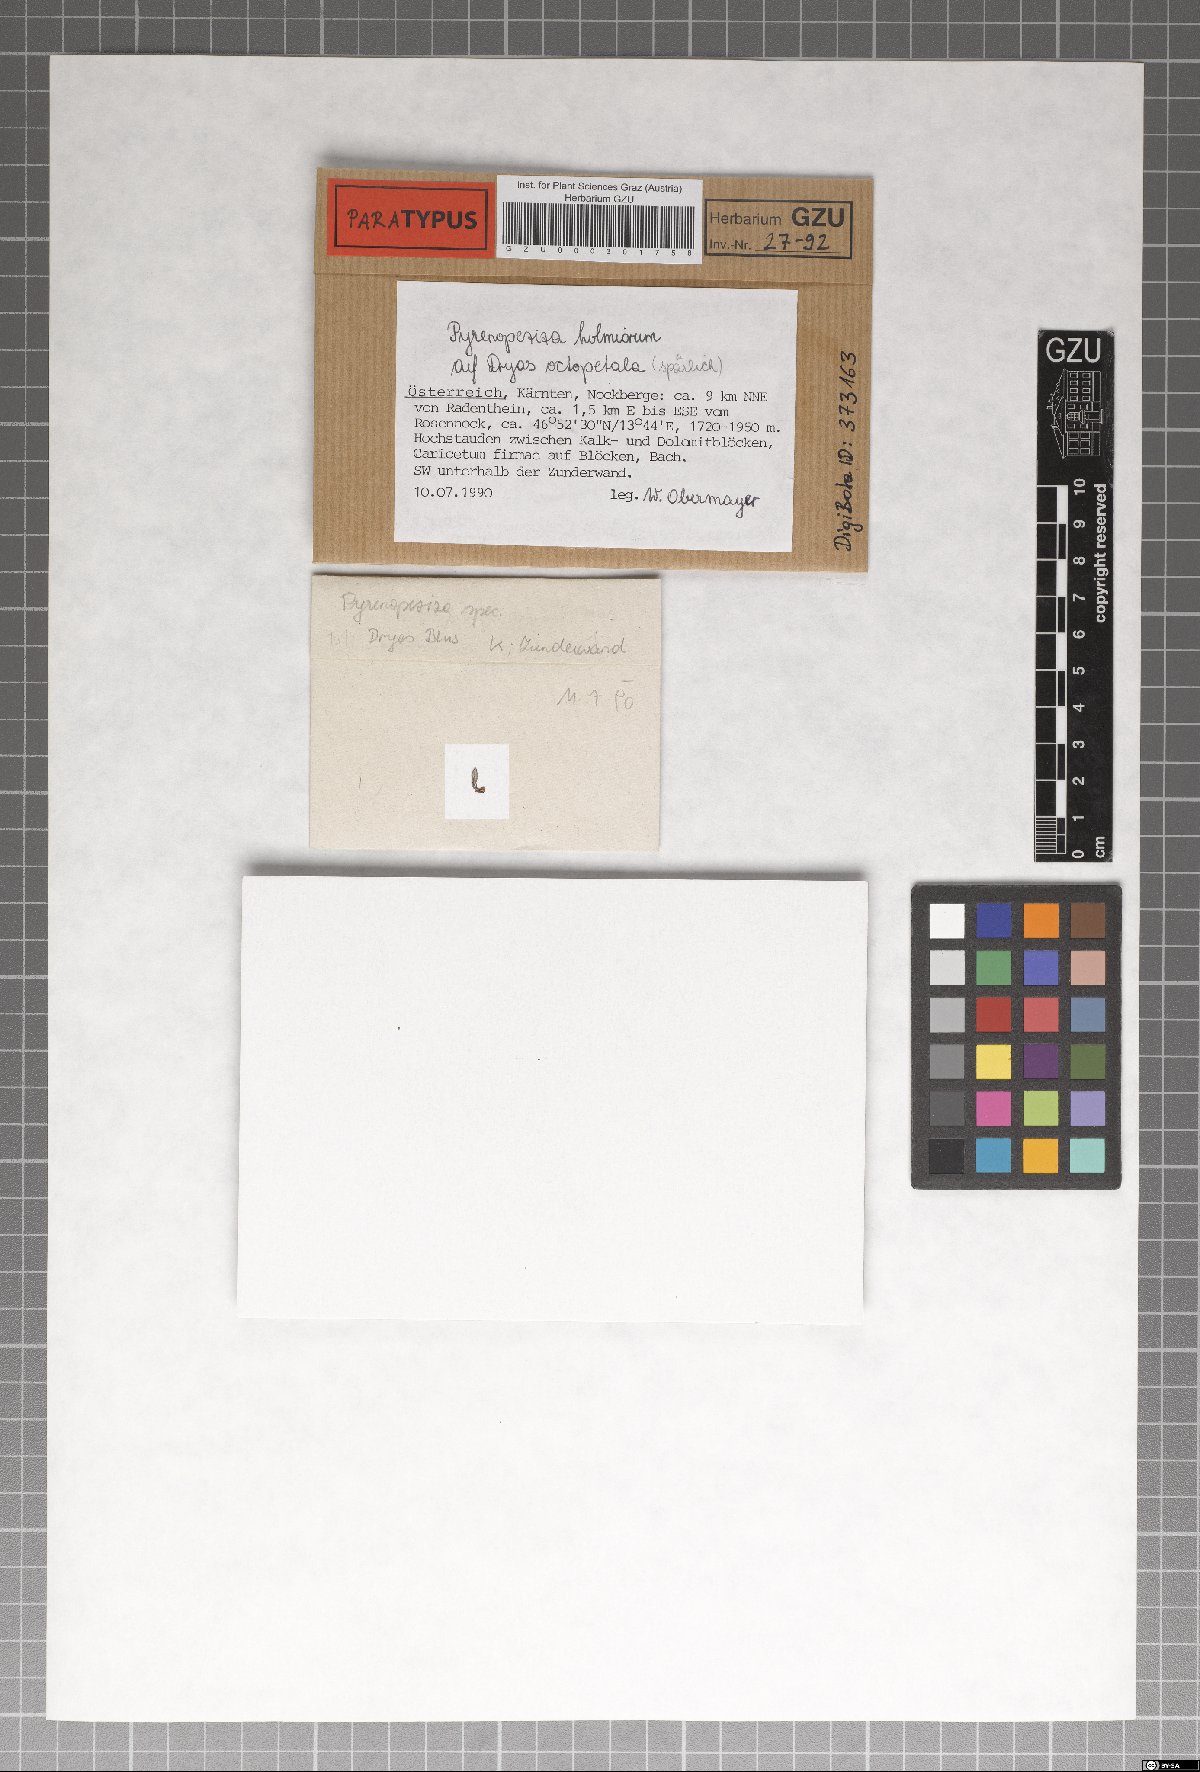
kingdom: Fungi
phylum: Ascomycota
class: Leotiomycetes
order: Helotiales
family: Ploettnerulaceae
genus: Pyrenopeziza
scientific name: Pyrenopeziza holmiorum
